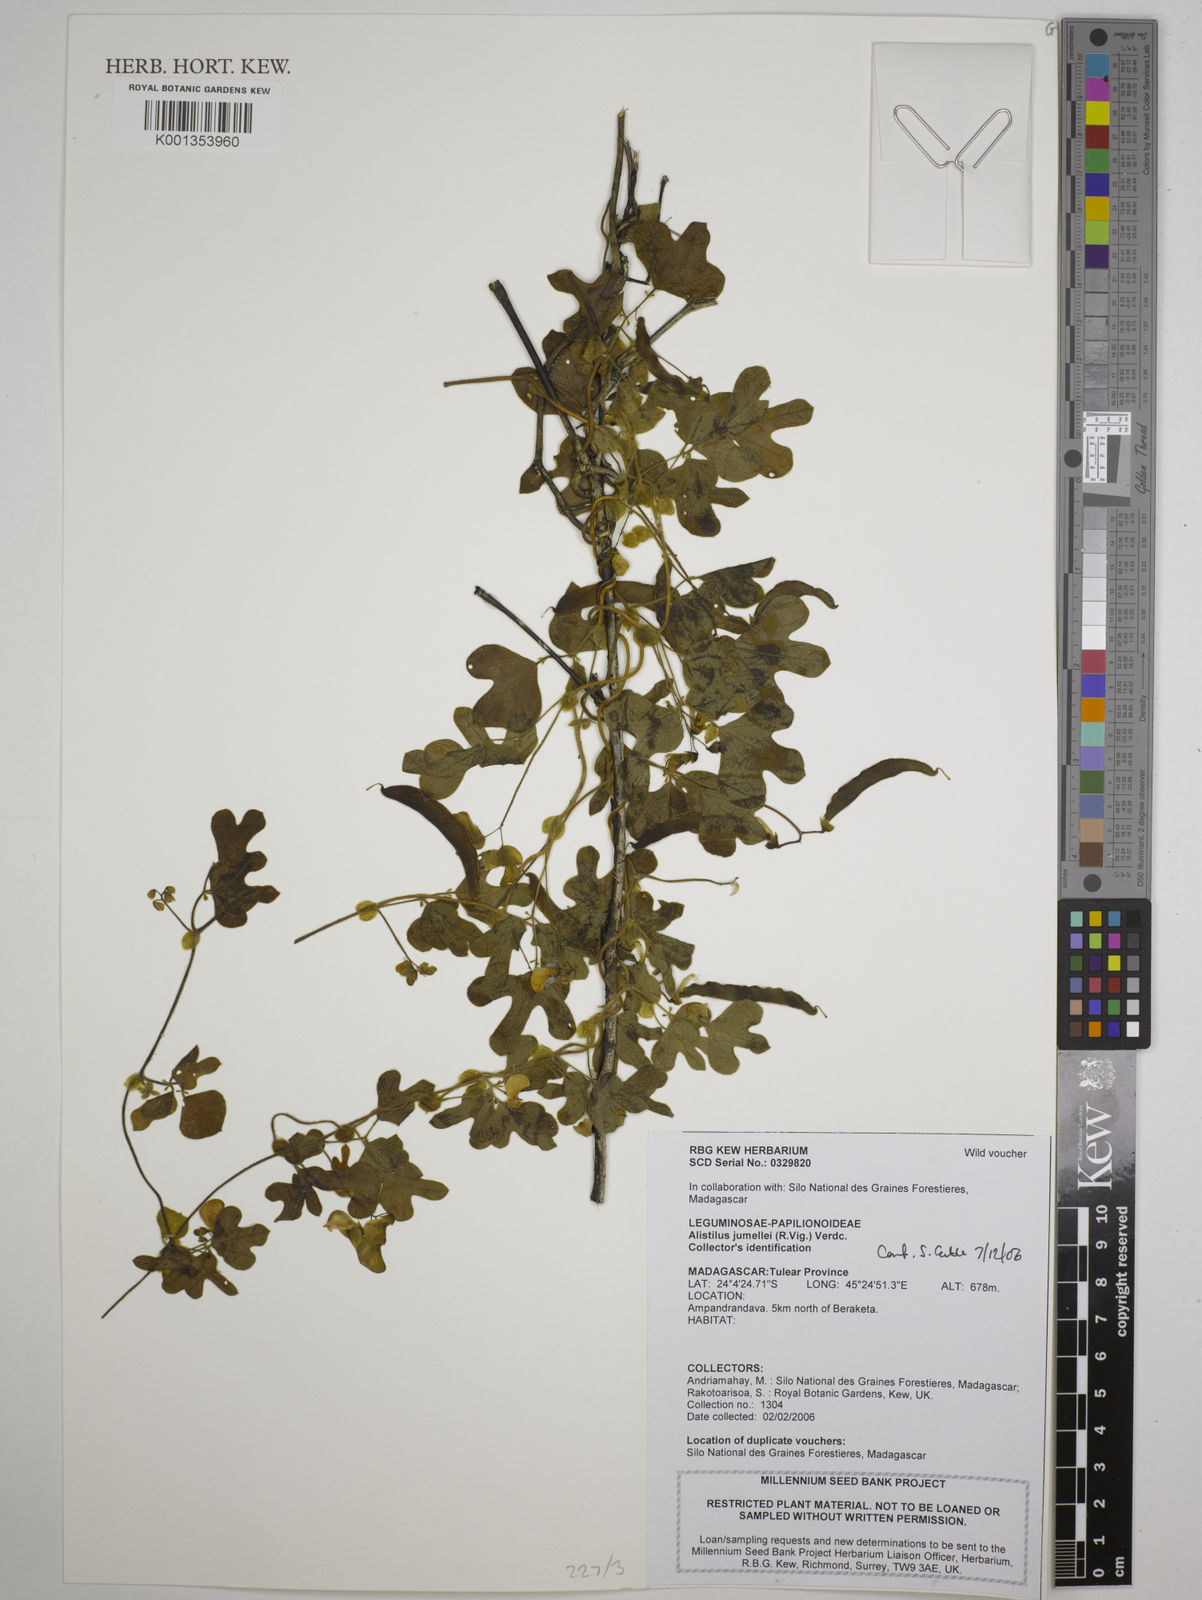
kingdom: Plantae
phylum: Tracheophyta
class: Magnoliopsida
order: Fabales
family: Fabaceae
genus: Alistilus
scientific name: Alistilus jumellei
